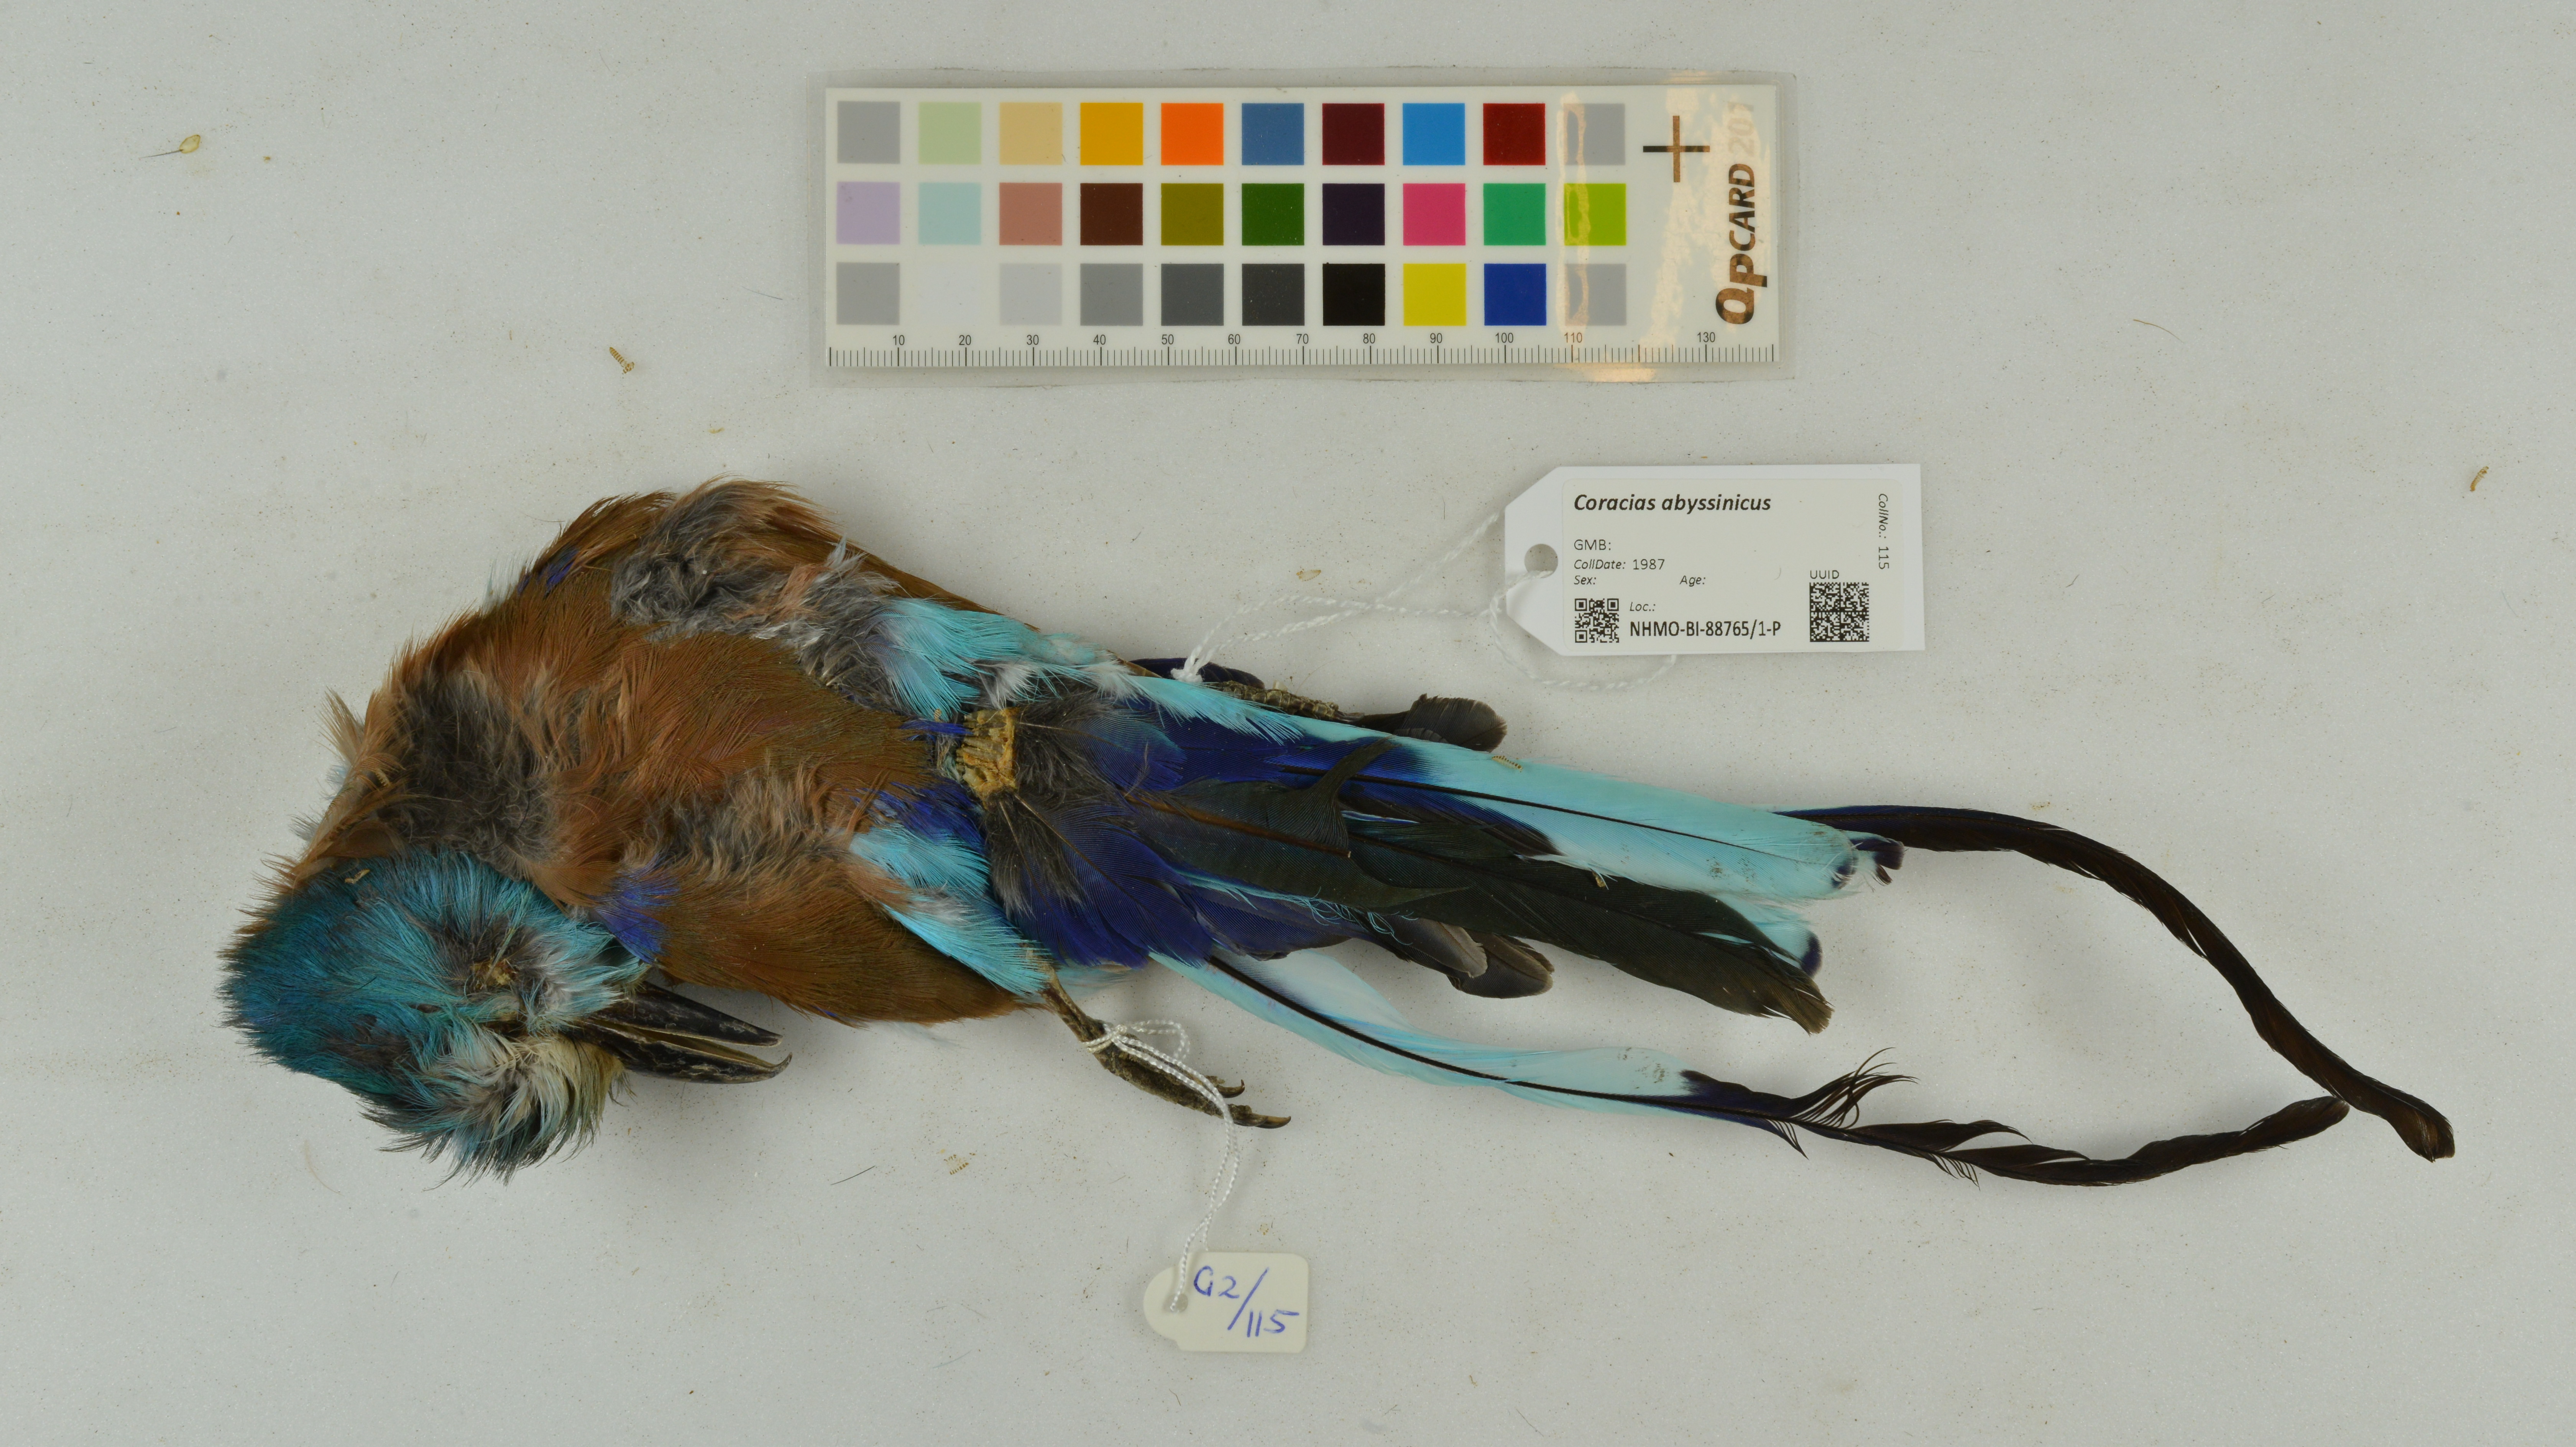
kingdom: Animalia
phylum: Chordata
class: Aves
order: Coraciiformes
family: Coraciidae
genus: Coracias
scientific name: Coracias abyssinicus
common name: Abyssinian roller
